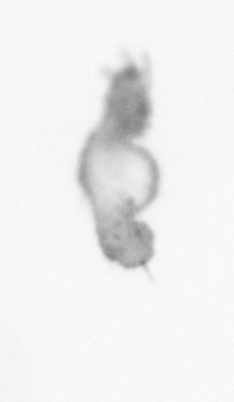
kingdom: Animalia
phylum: Annelida
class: Polychaeta
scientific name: Polychaeta
